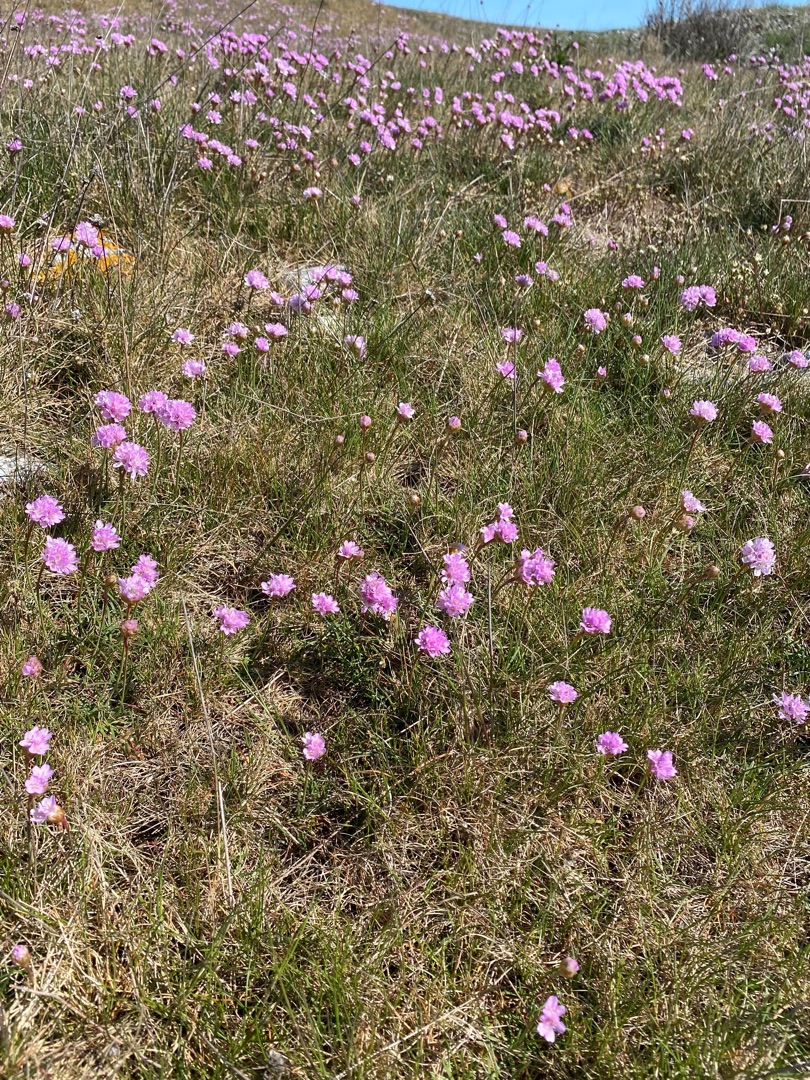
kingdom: Plantae
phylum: Tracheophyta
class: Magnoliopsida
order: Caryophyllales
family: Plumbaginaceae
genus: Armeria
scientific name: Armeria maritima
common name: Strand-engelskgræs
